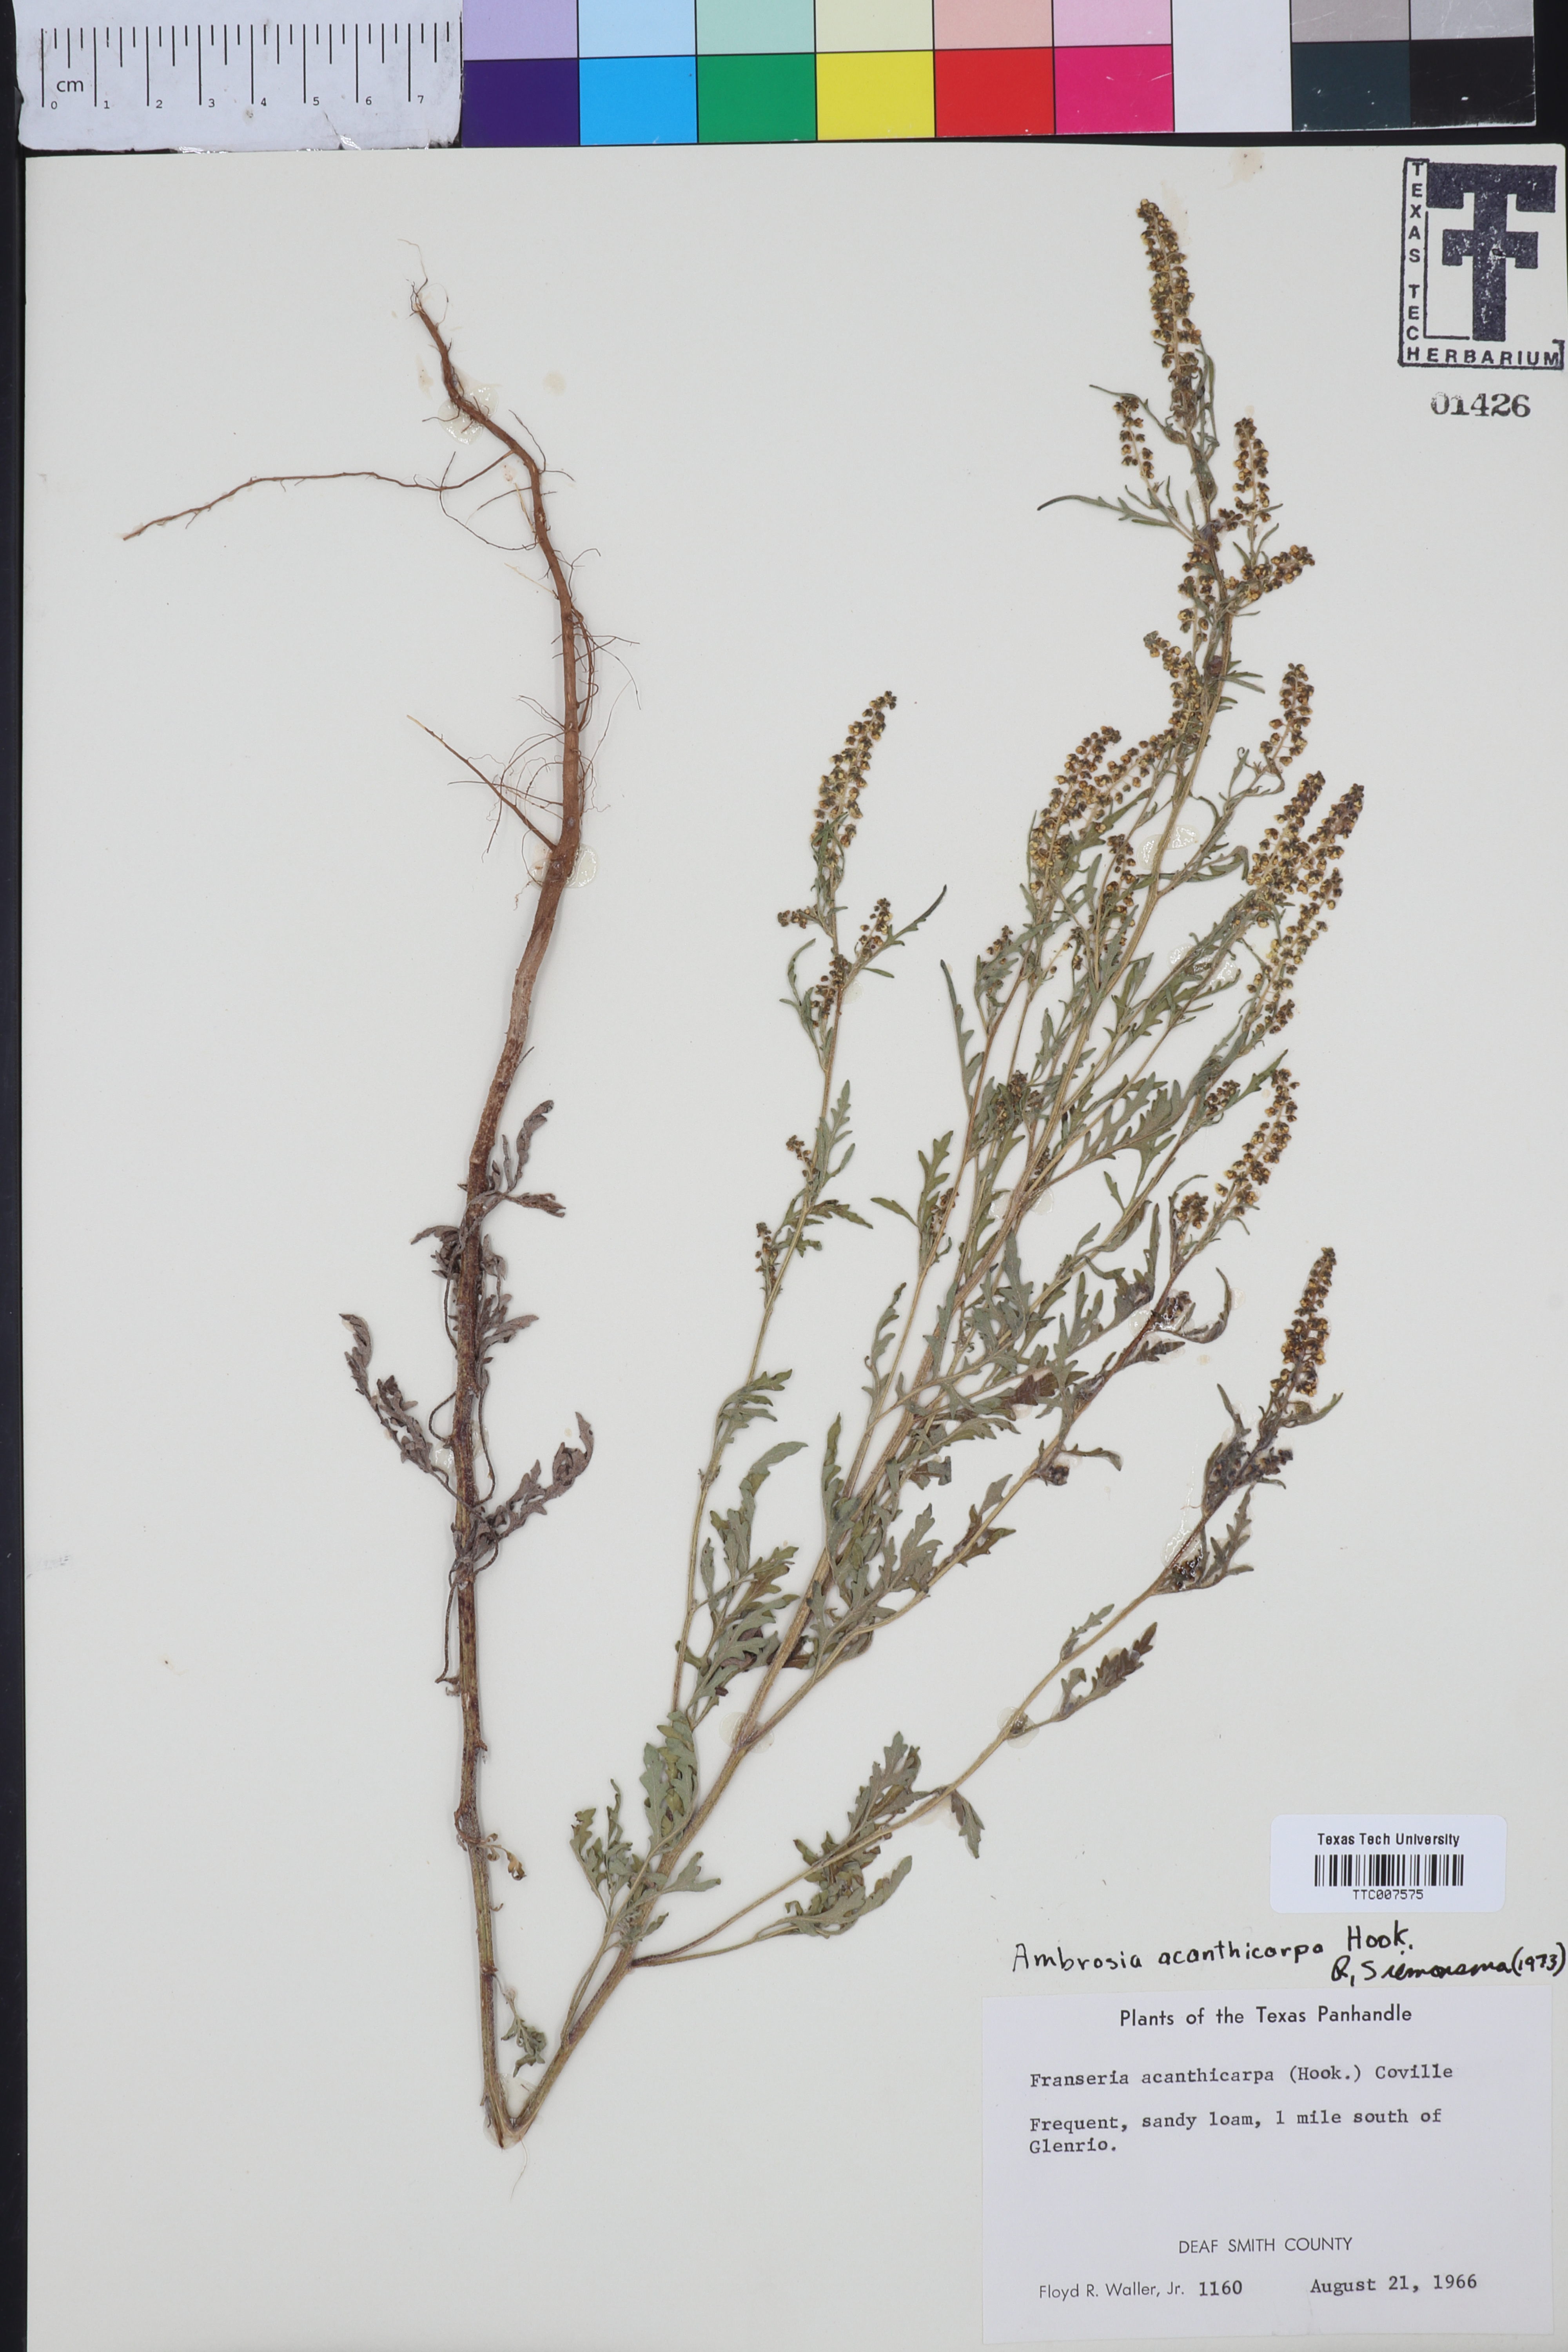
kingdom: Plantae
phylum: Tracheophyta
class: Magnoliopsida
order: Asterales
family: Asteraceae
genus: Ambrosia
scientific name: Ambrosia acanthicarpa
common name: Hooker's bur ragweed
